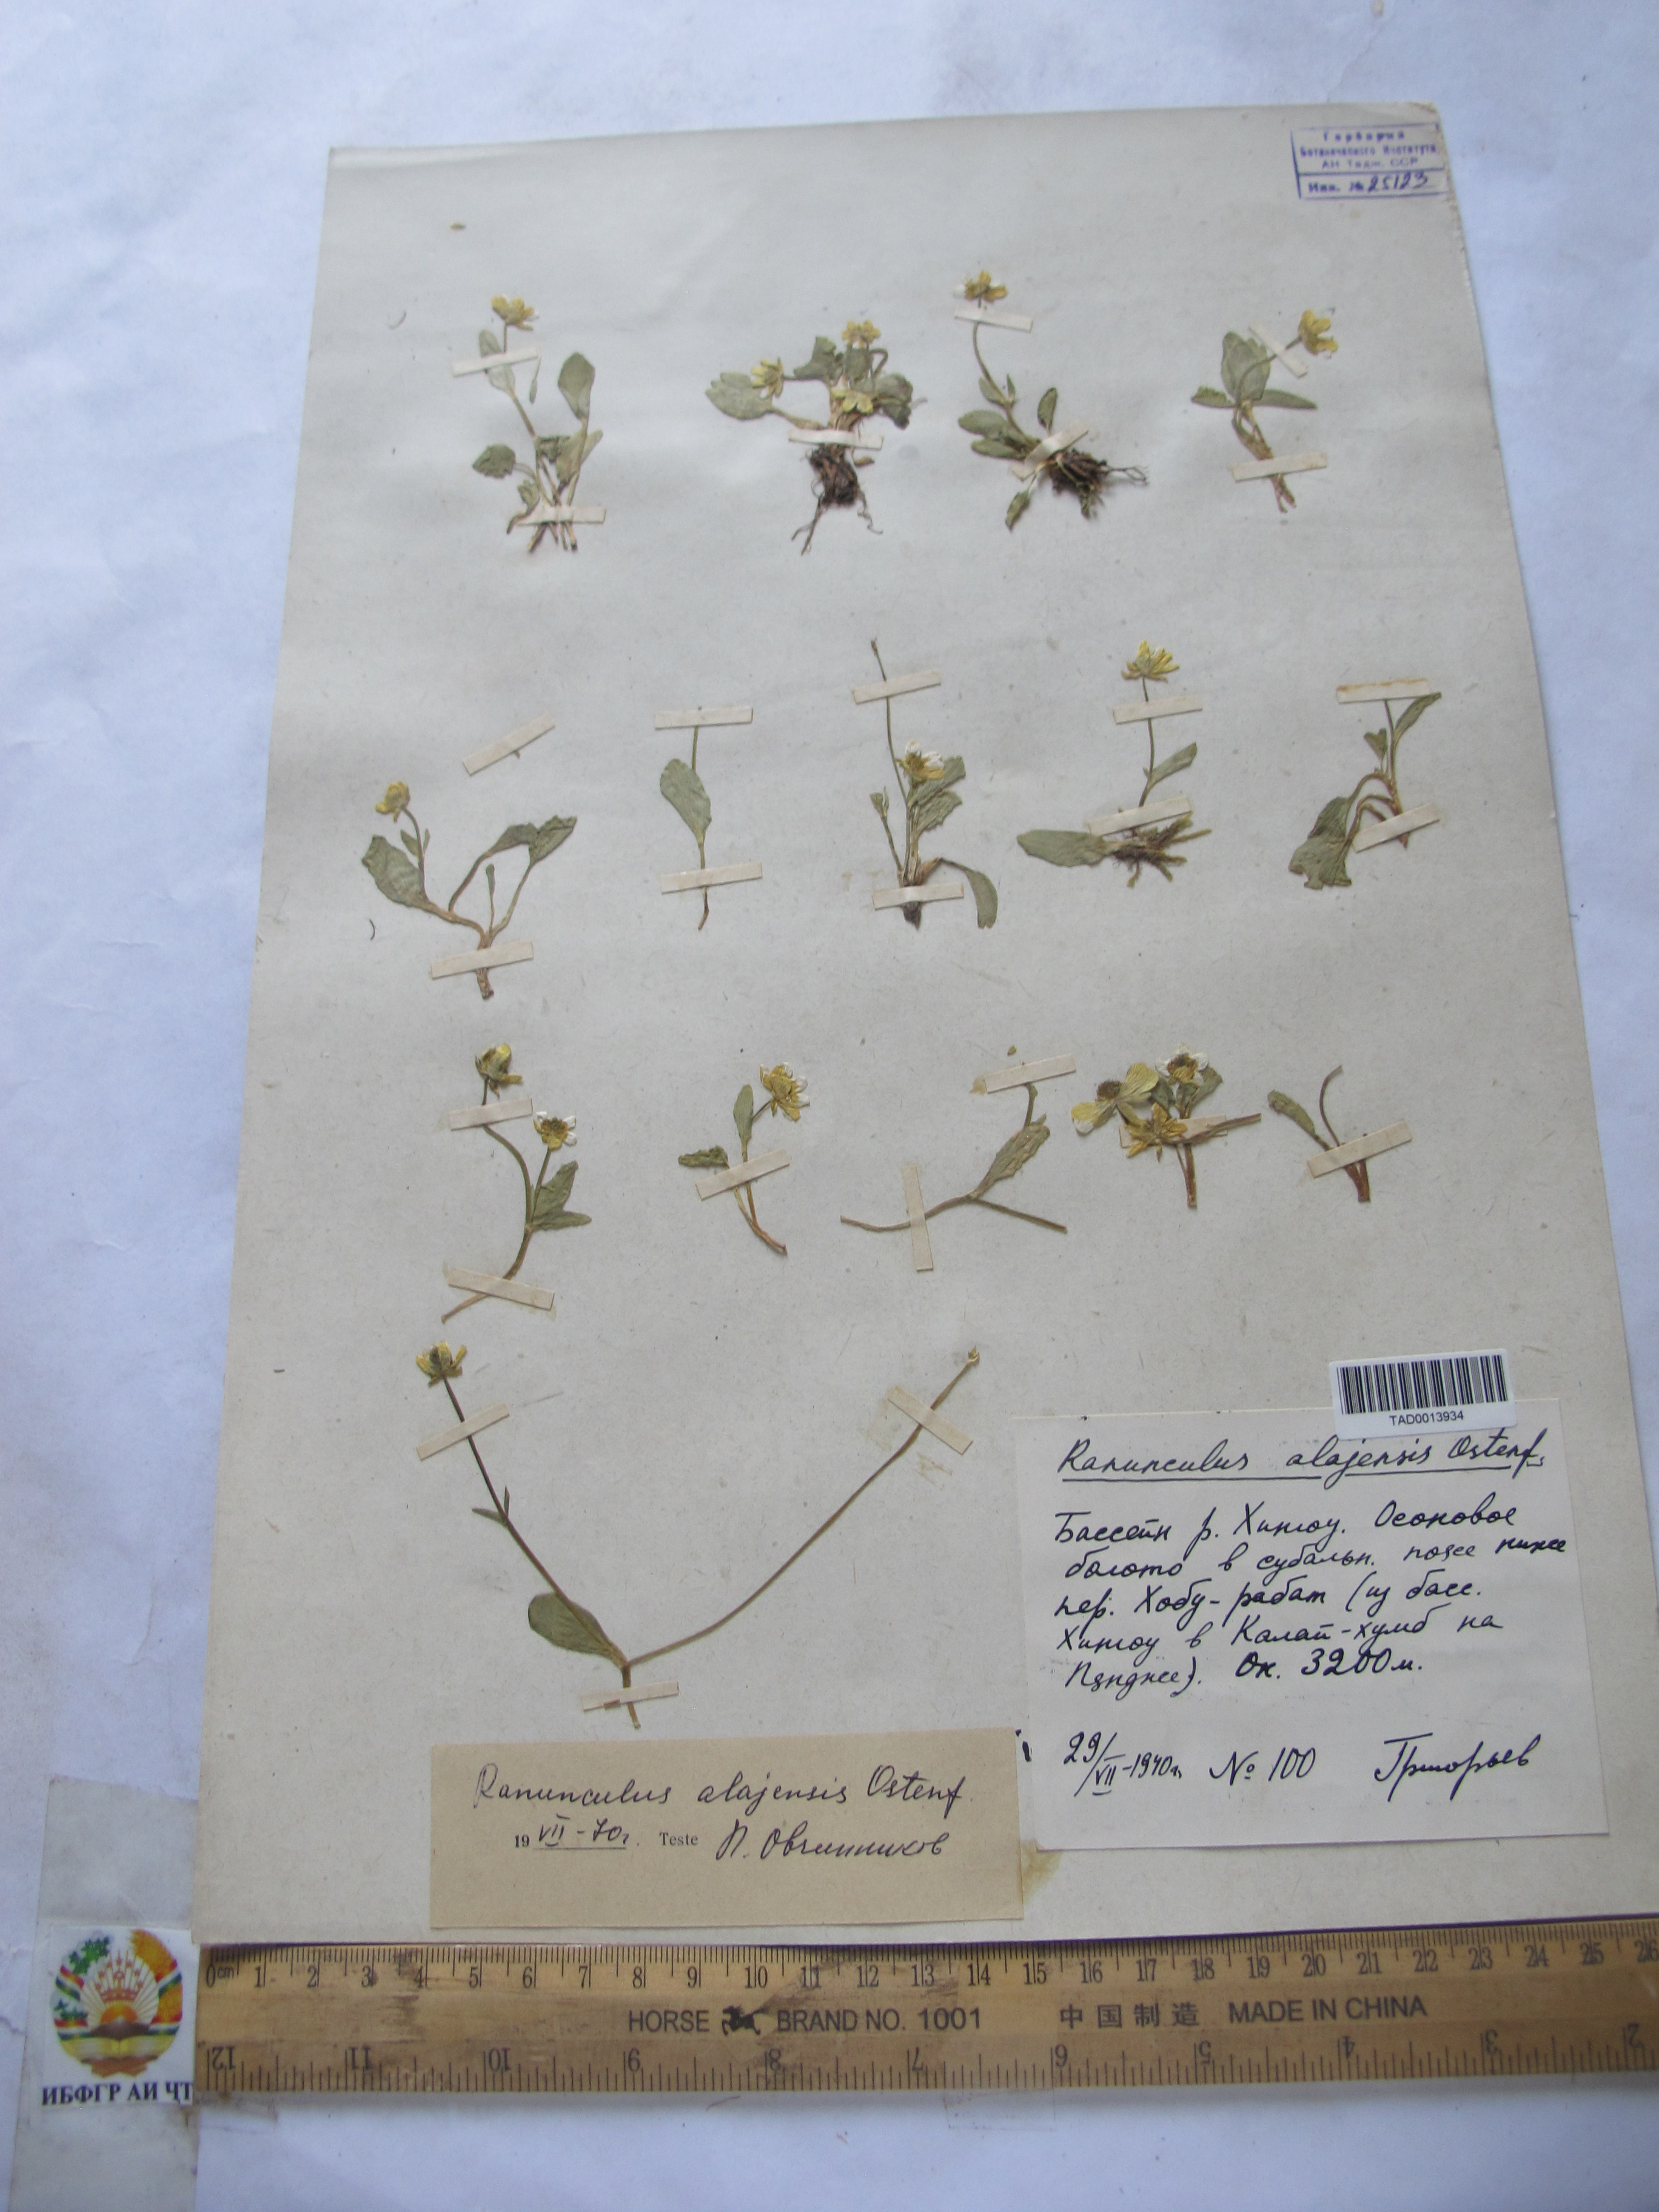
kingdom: Plantae
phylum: Tracheophyta
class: Magnoliopsida
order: Ranunculales
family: Ranunculaceae
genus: Ranunculus
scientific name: Ranunculus alaiensis
